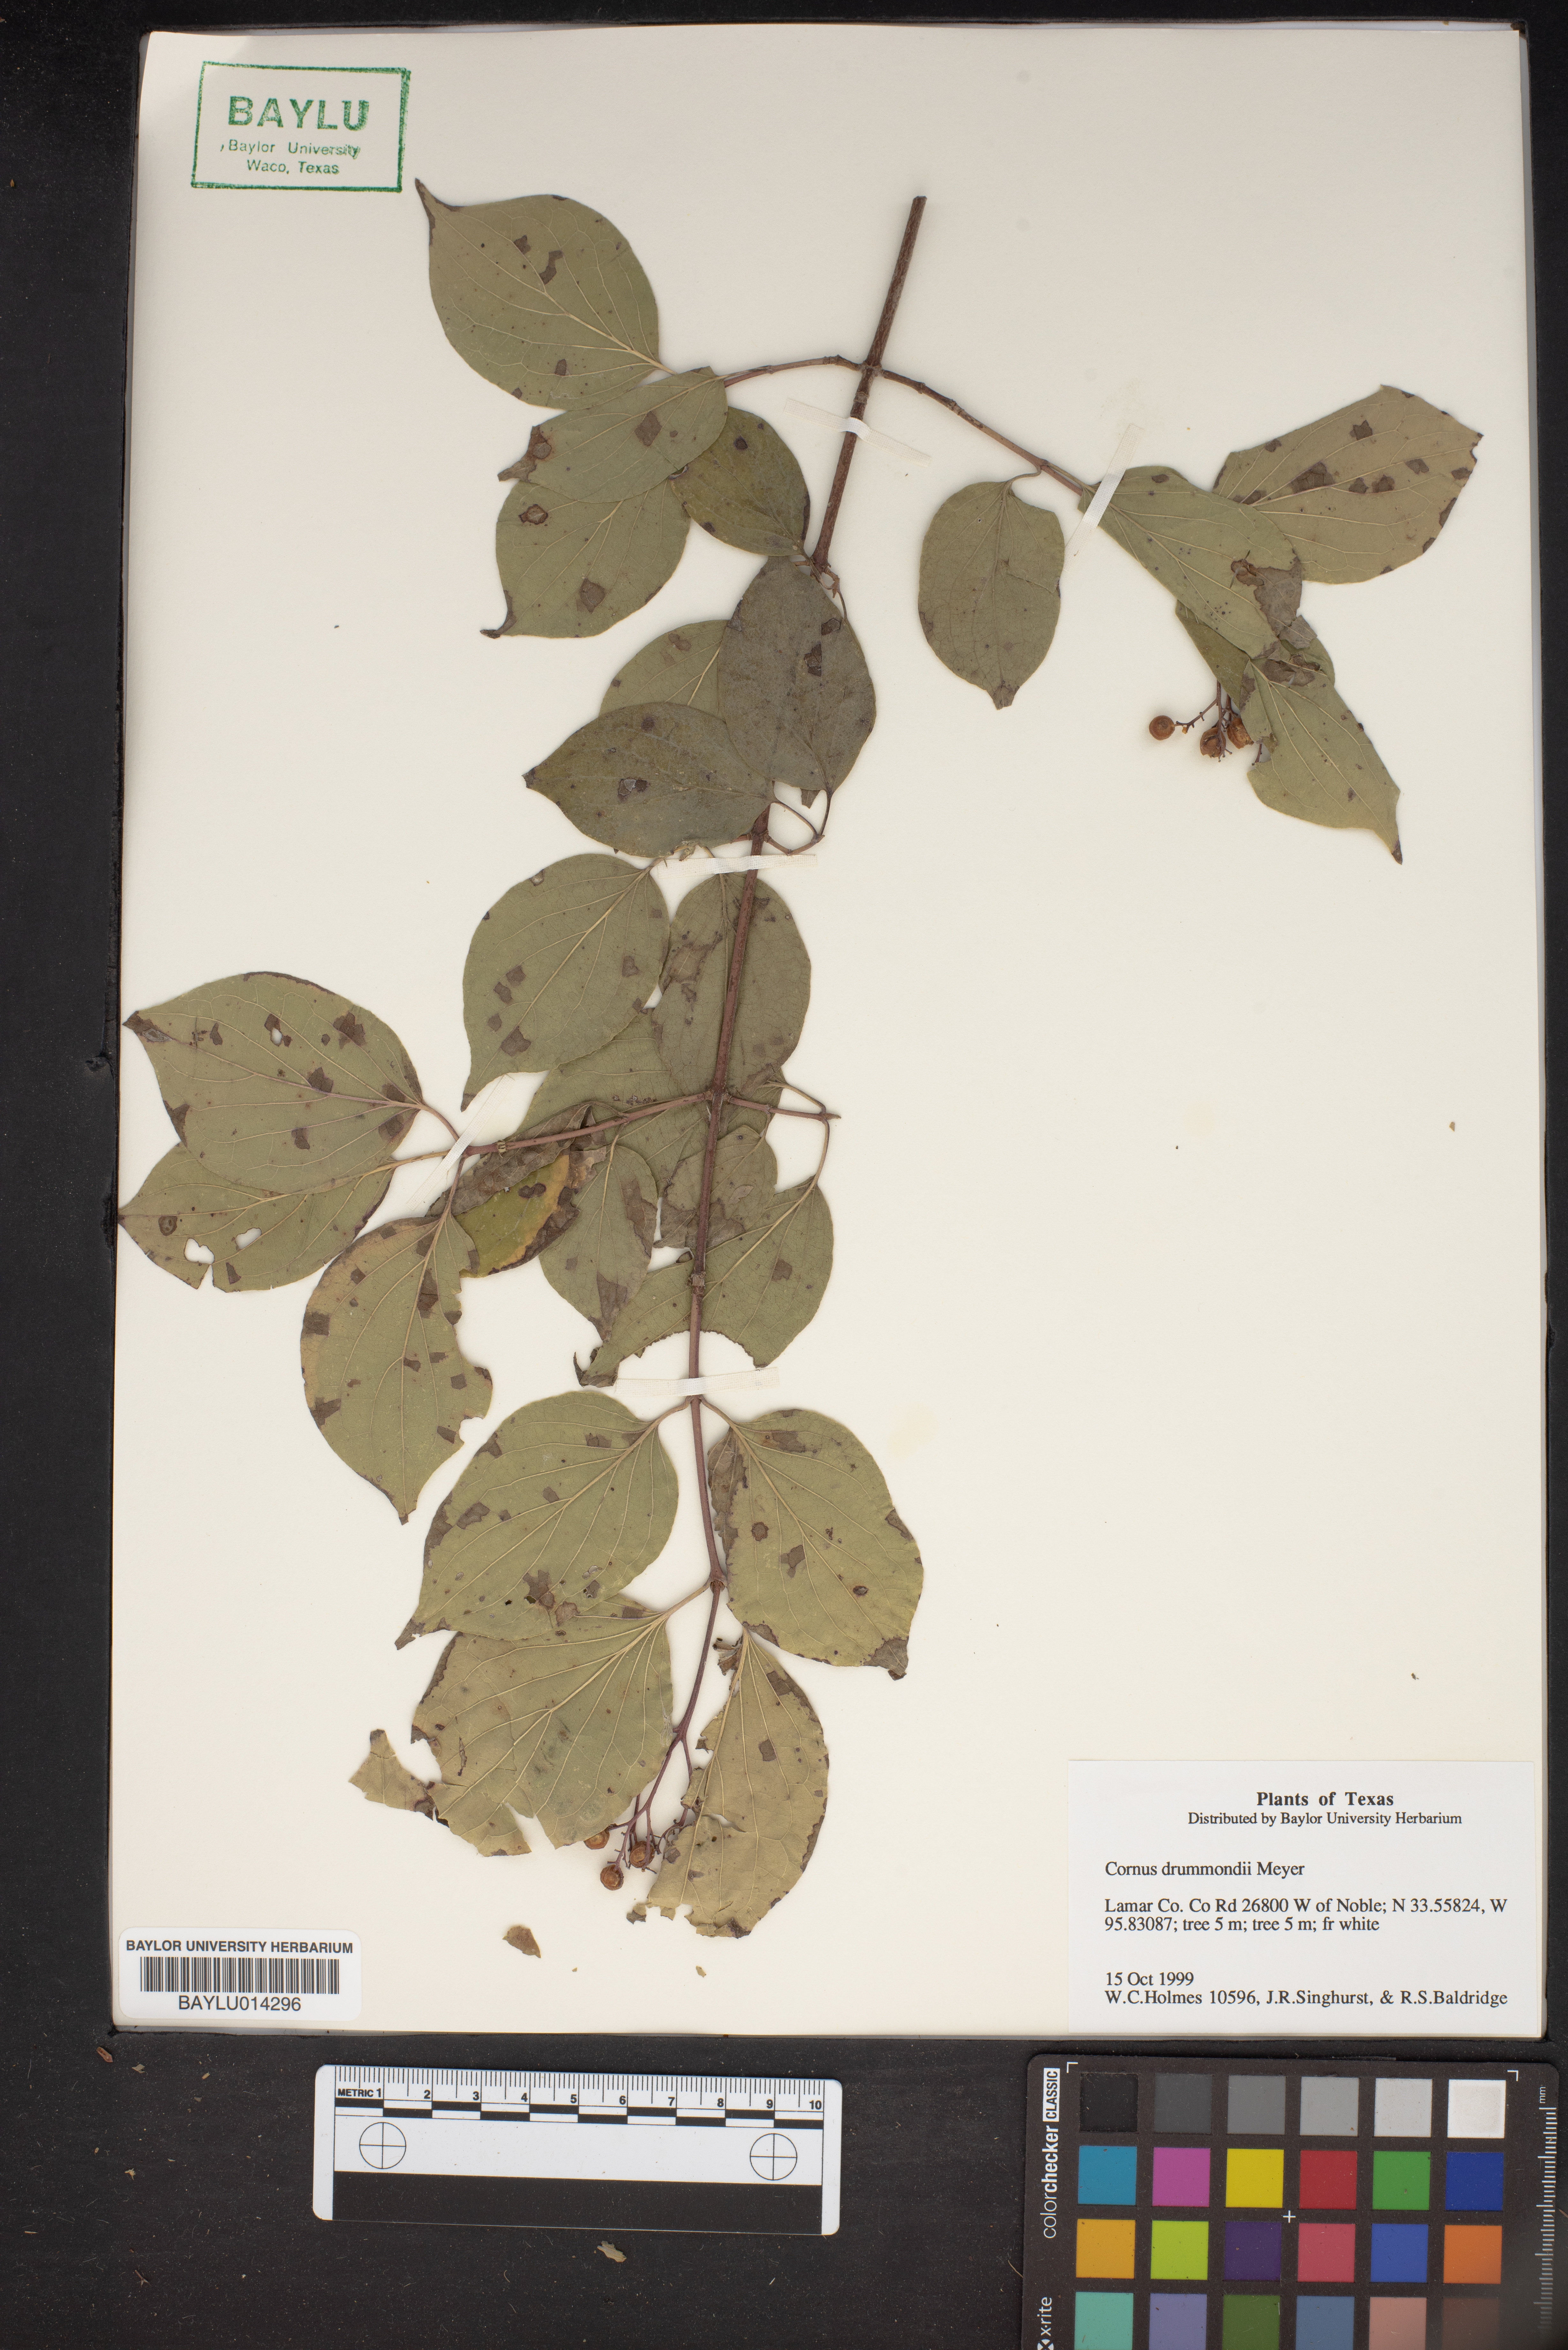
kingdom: Plantae
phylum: Tracheophyta
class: Magnoliopsida
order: Cornales
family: Cornaceae
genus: Cornus
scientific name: Cornus drummondii
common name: Rough-leaf dogwood
